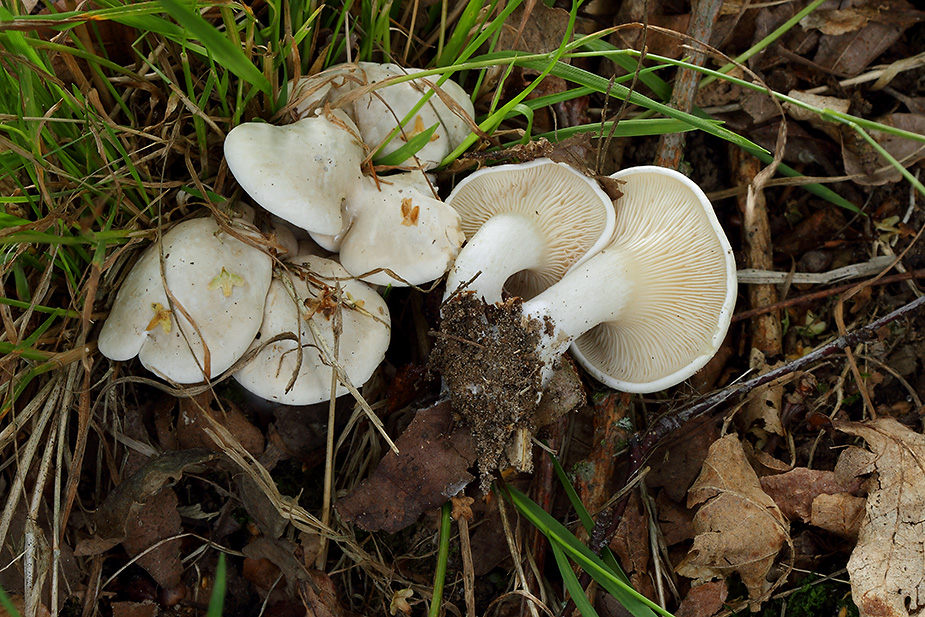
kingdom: Fungi
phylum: Basidiomycota
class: Agaricomycetes
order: Agaricales
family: Entolomataceae
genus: Clitopilus
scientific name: Clitopilus prunulus
